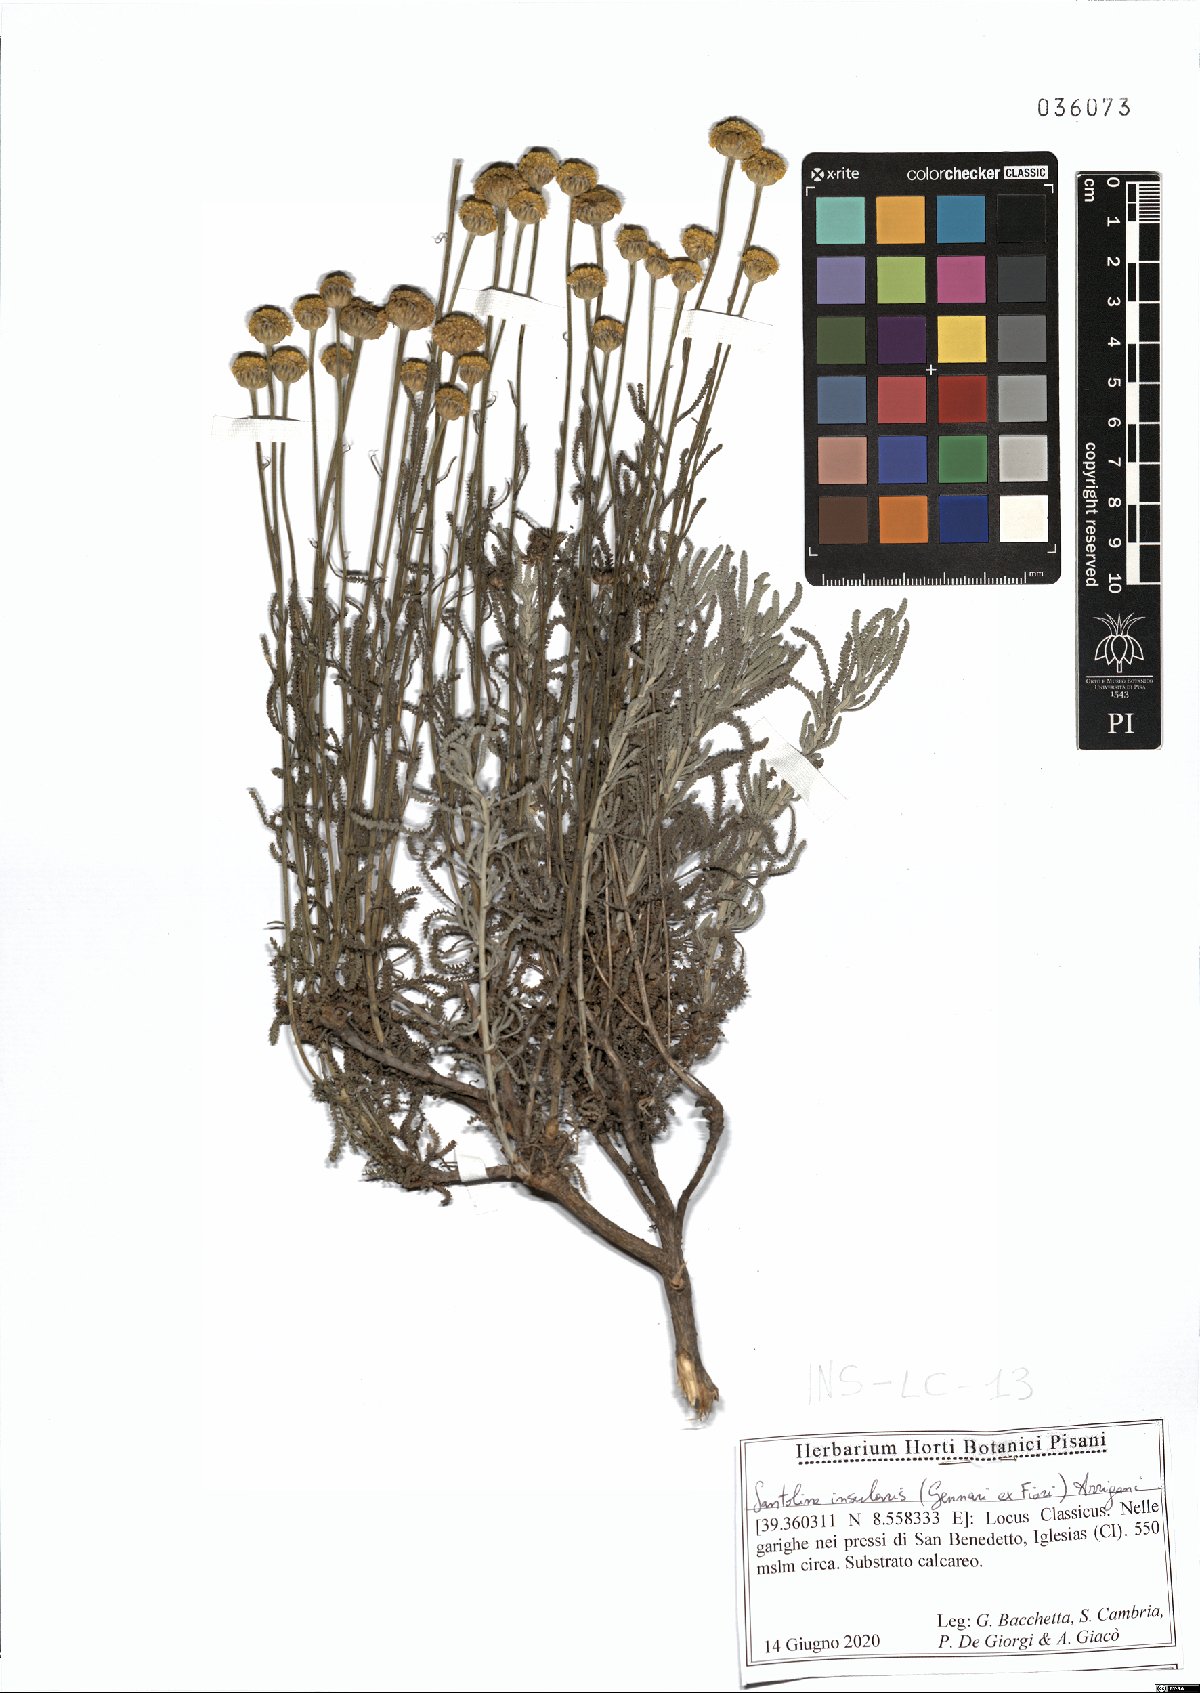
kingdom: Plantae
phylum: Tracheophyta
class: Magnoliopsida
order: Asterales
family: Asteraceae
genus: Santolina
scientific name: Santolina insularis
